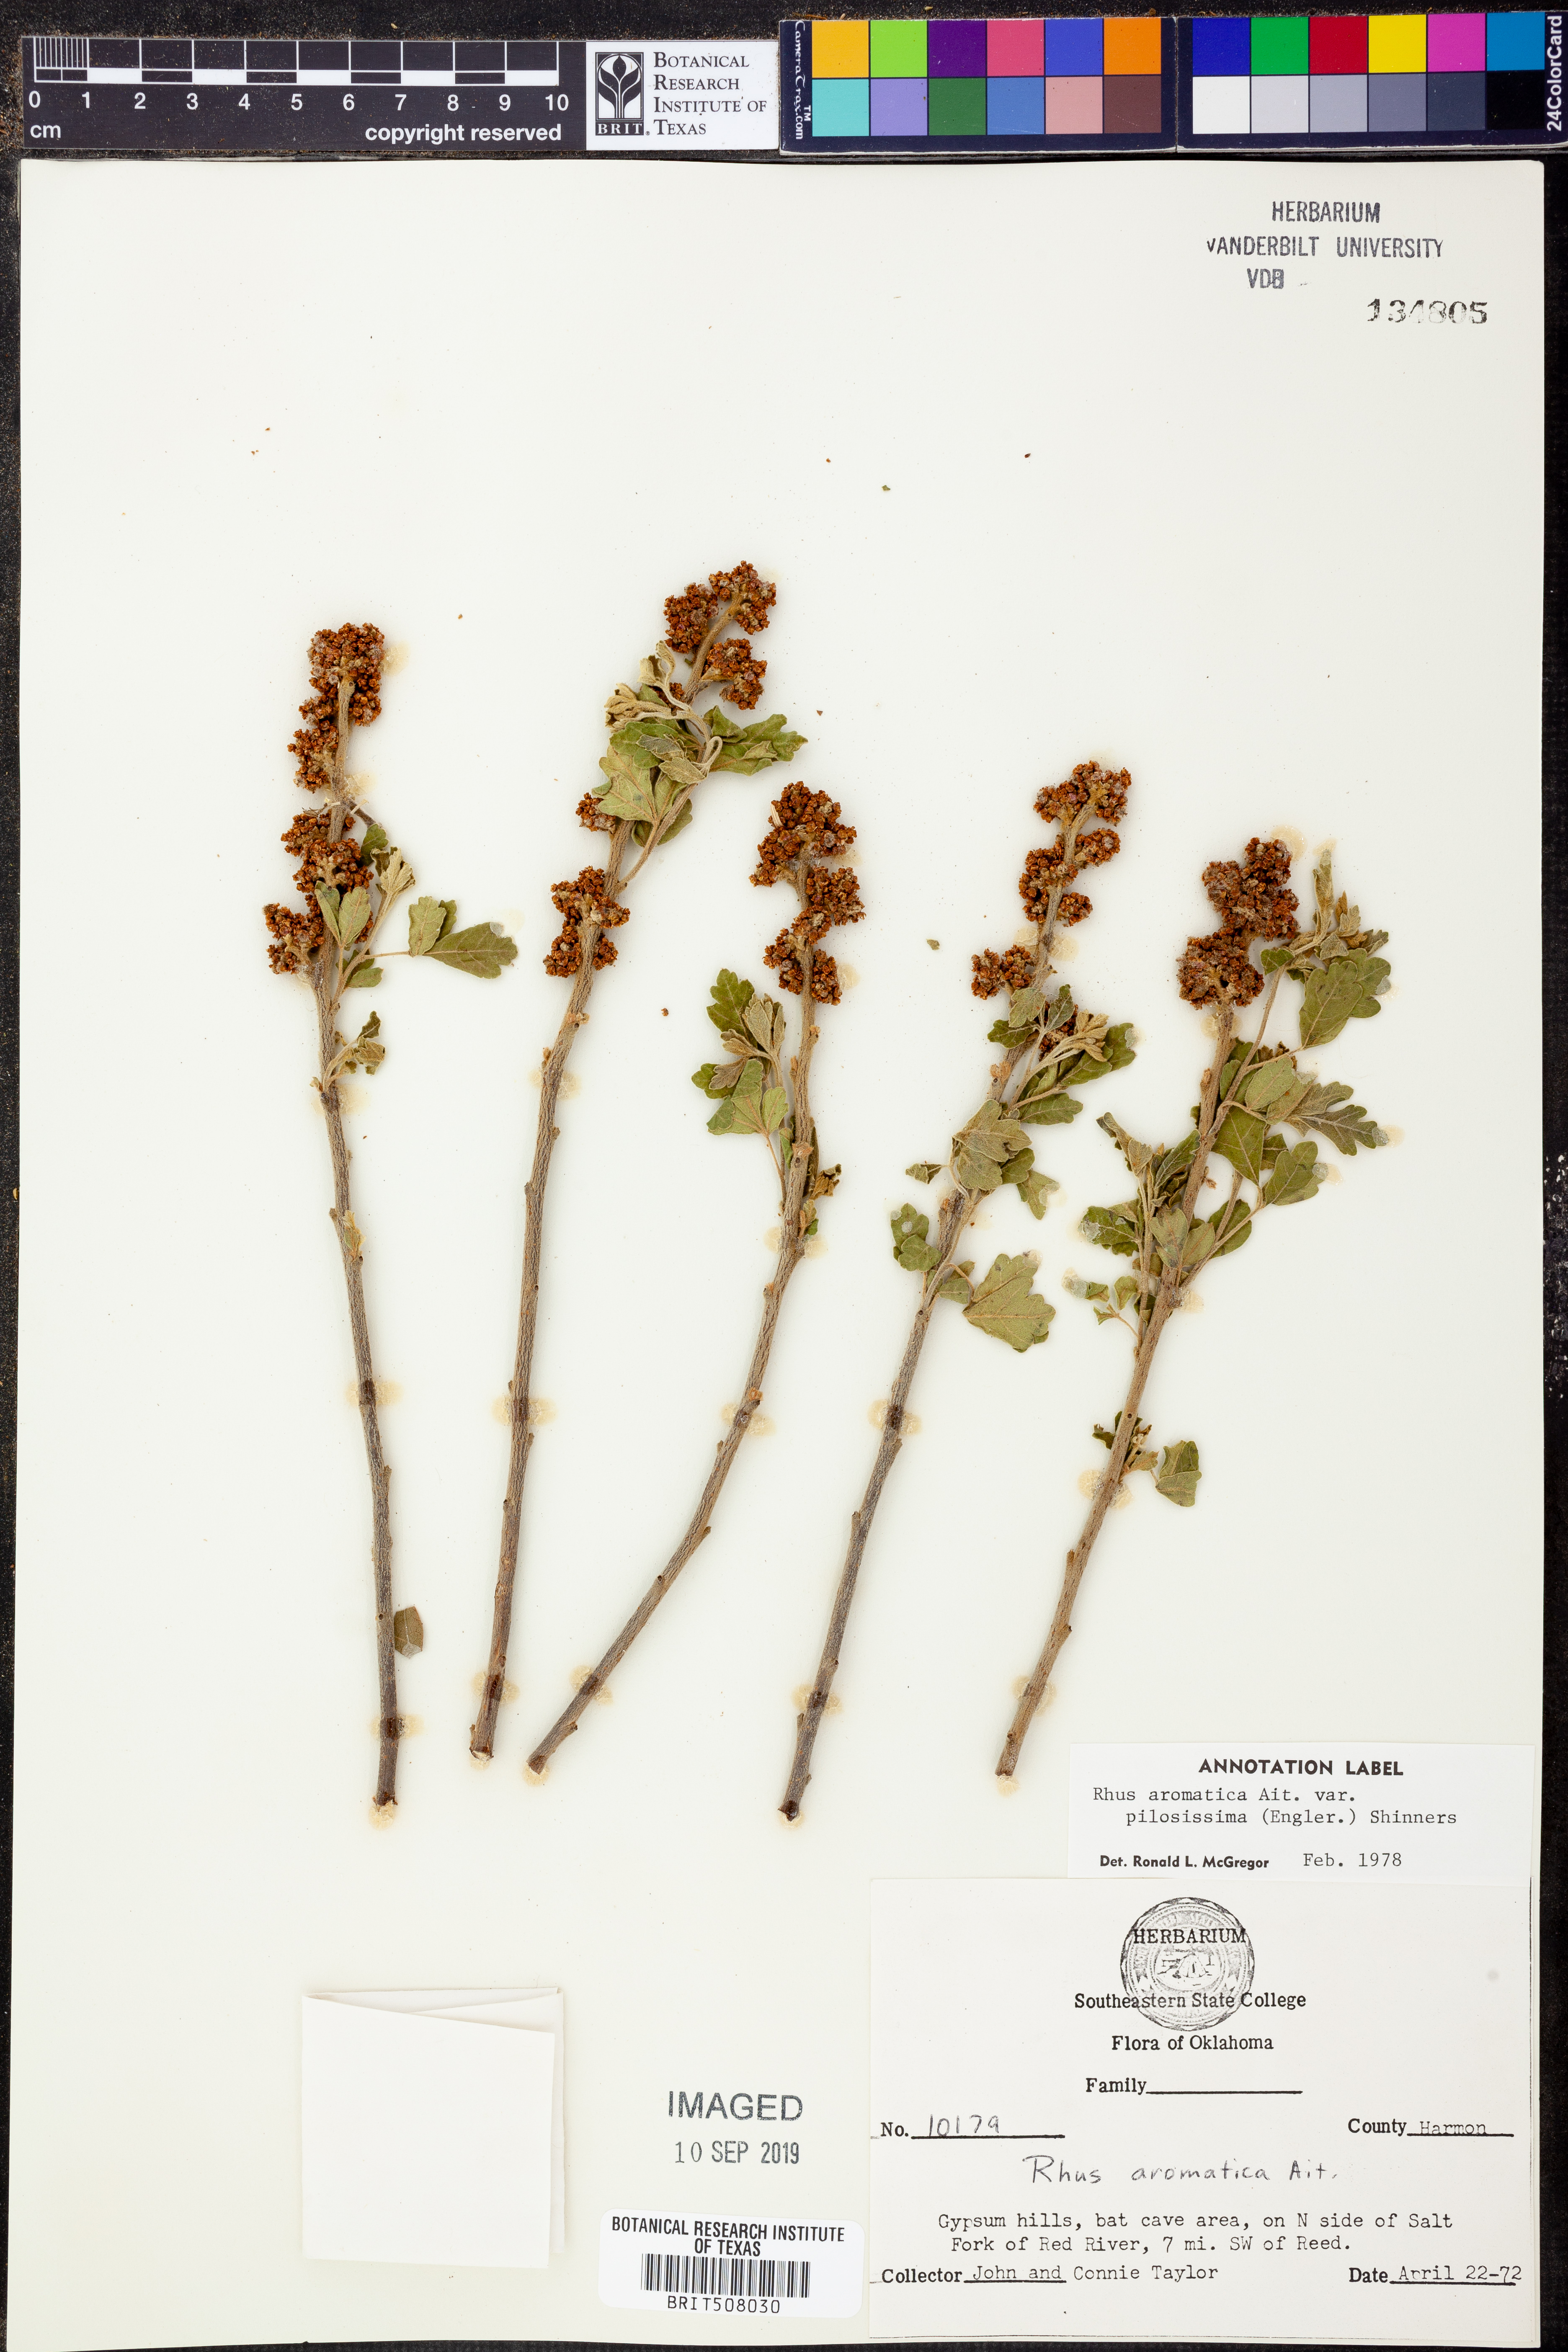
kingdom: Plantae
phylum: Tracheophyta
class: Magnoliopsida
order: Sapindales
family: Anacardiaceae
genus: Rhus
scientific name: Rhus trilobata
